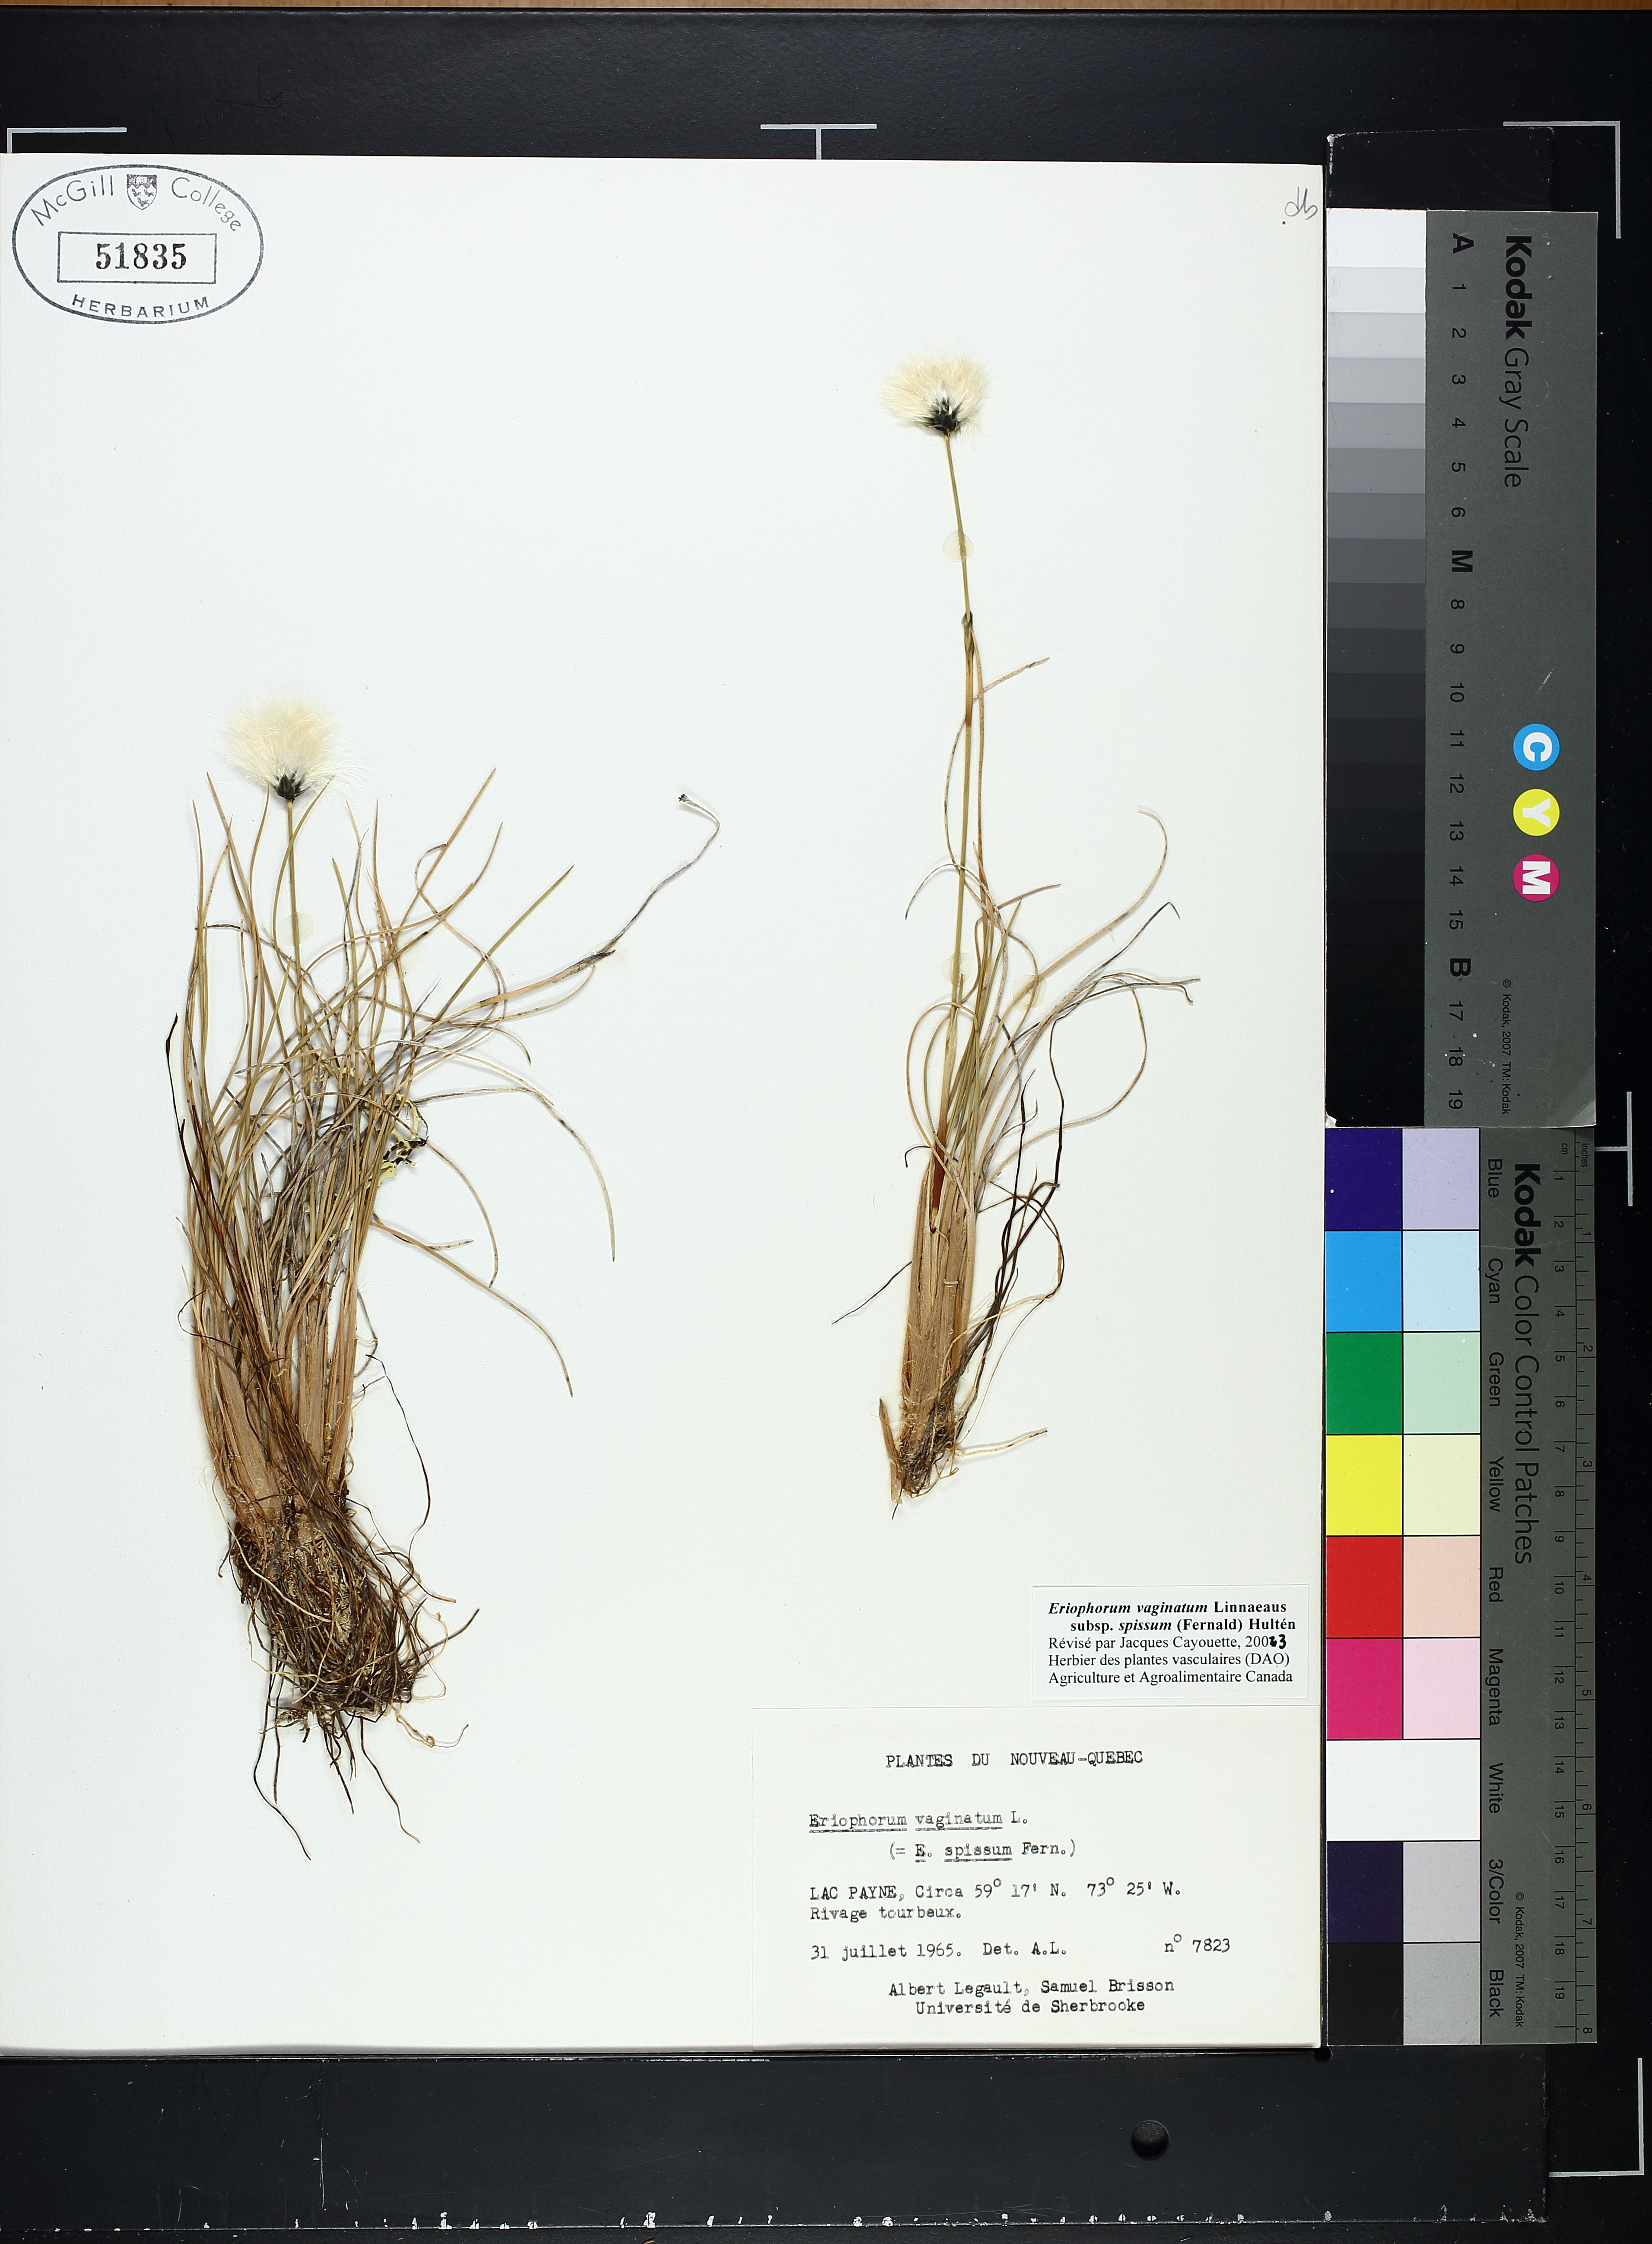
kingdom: Plantae
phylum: Tracheophyta
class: Liliopsida
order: Poales
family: Cyperaceae
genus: Eriophorum
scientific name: Eriophorum vaginatum
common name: Hare's-tail cottongrass
